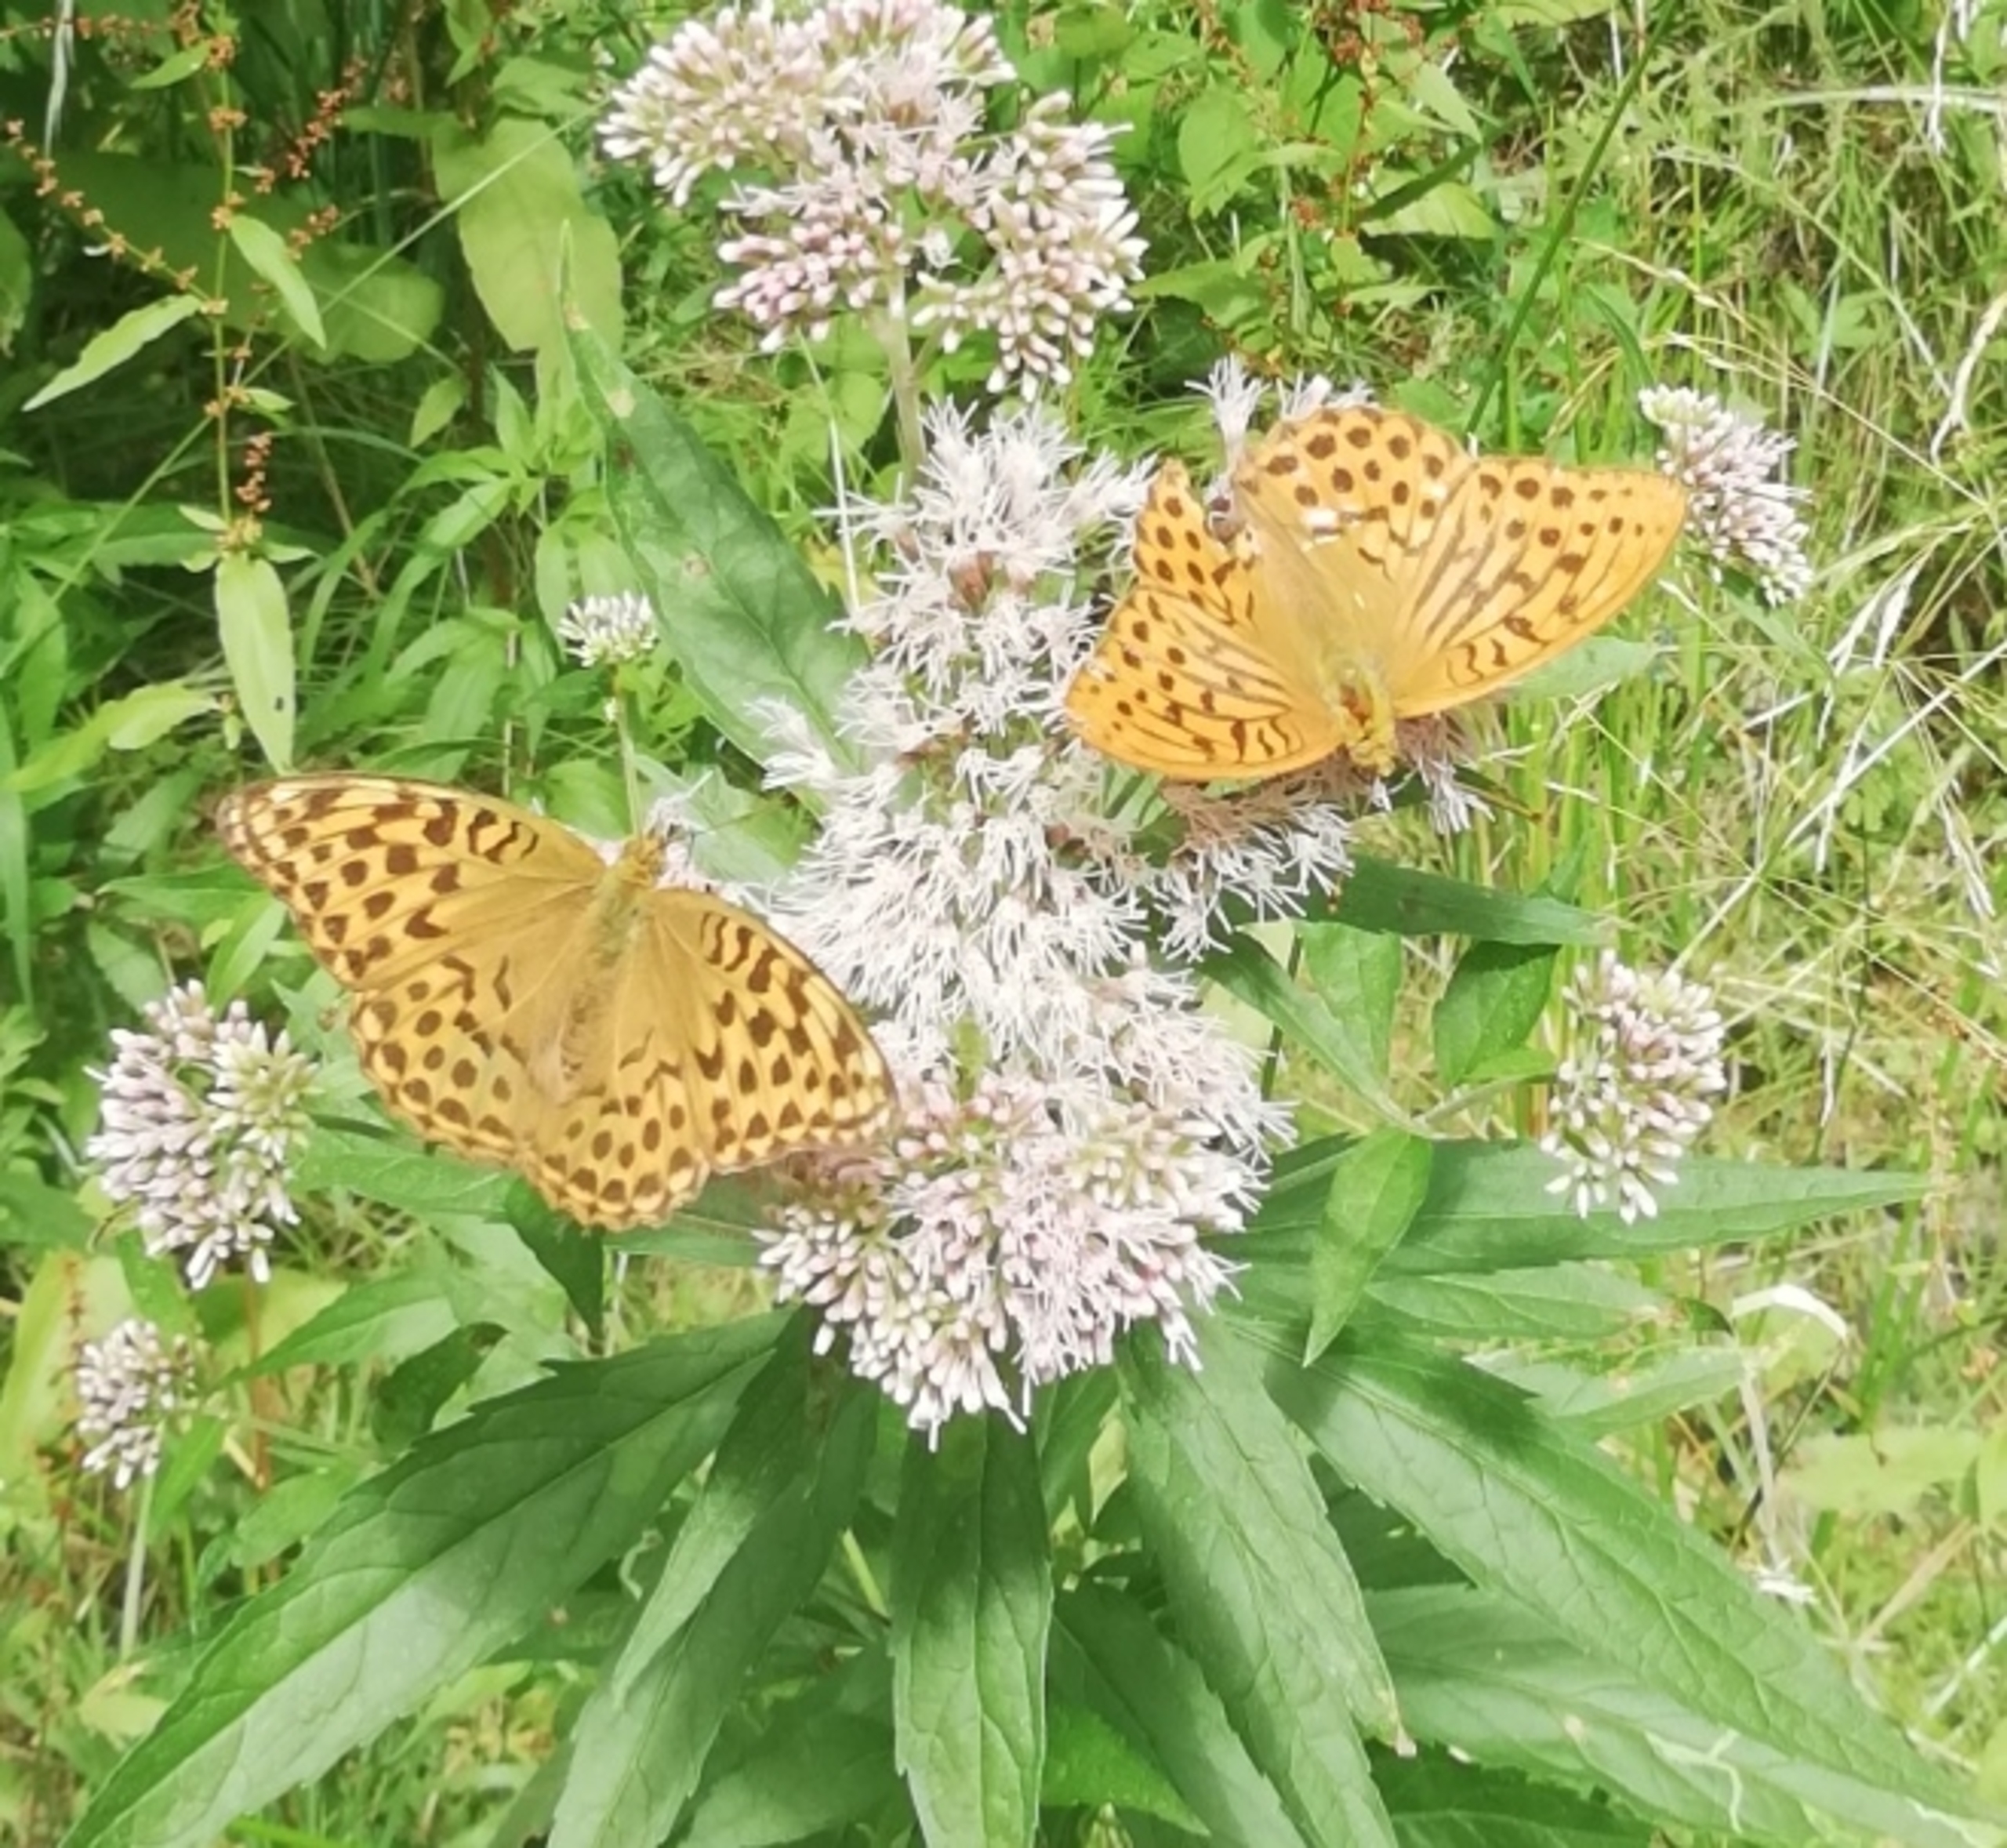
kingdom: Animalia
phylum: Arthropoda
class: Insecta
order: Lepidoptera
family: Nymphalidae
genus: Argynnis
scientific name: Argynnis paphia
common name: Kejserkåbe
